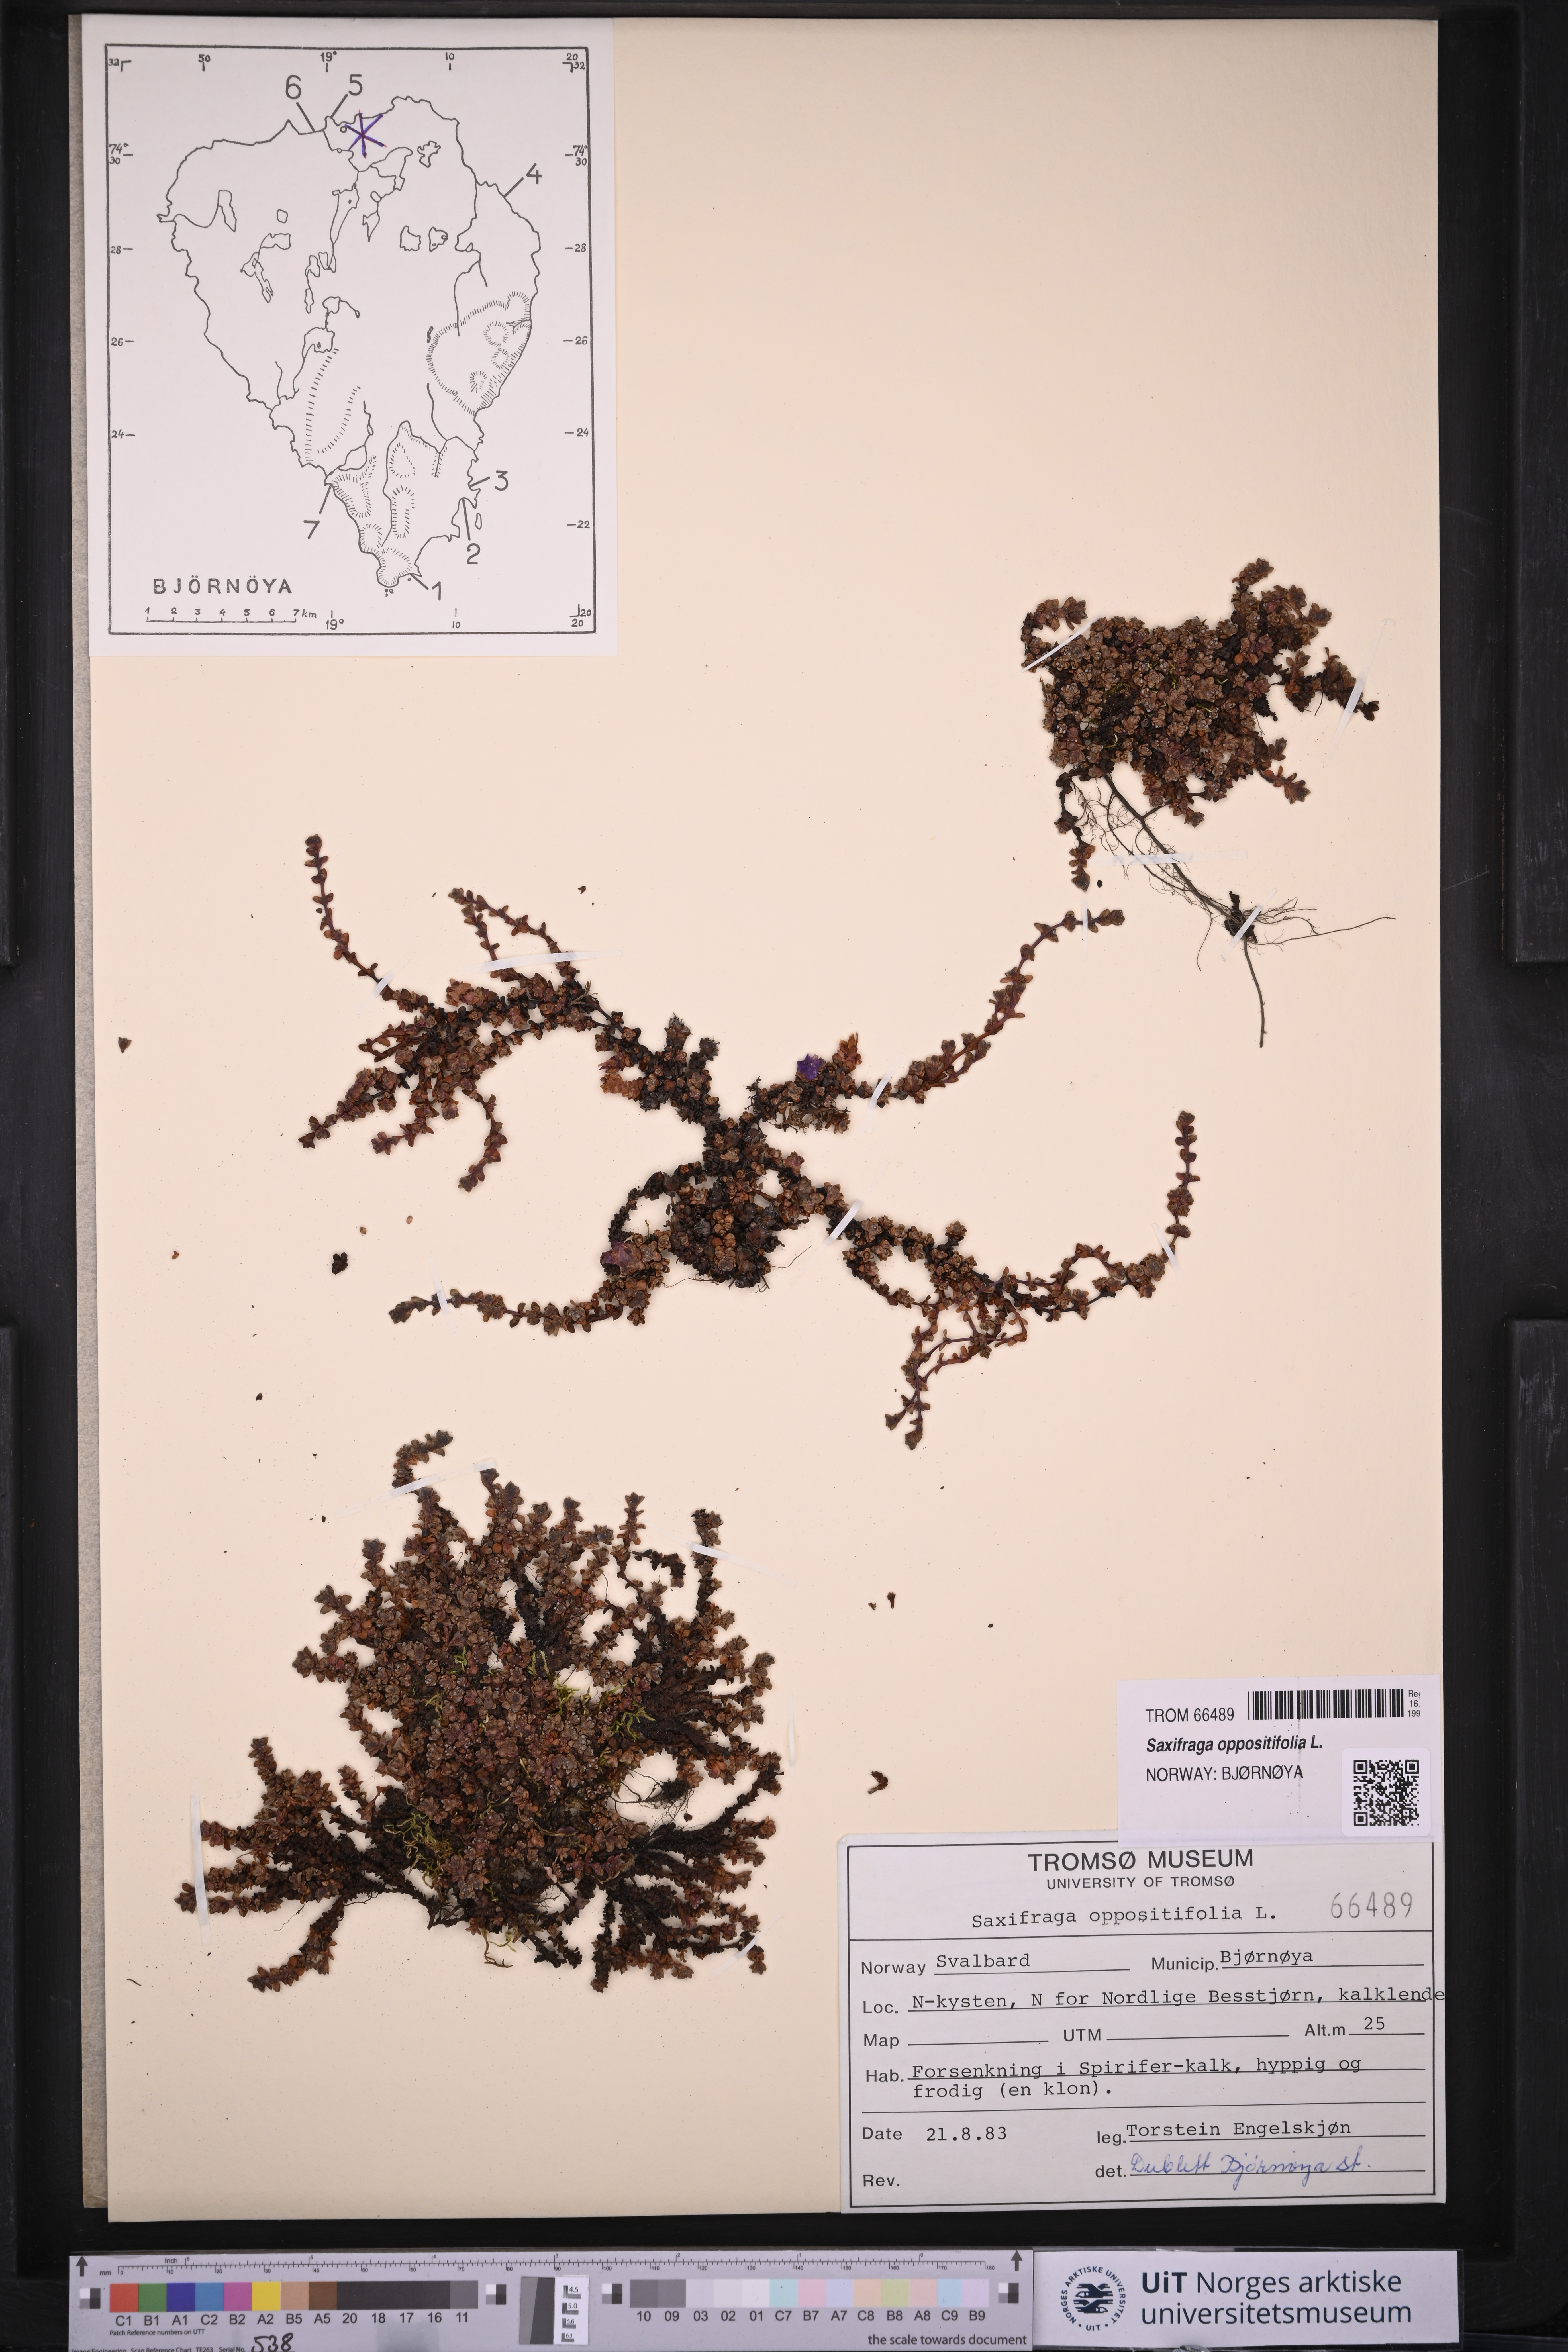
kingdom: Plantae
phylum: Tracheophyta
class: Magnoliopsida
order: Saxifragales
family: Saxifragaceae
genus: Saxifraga
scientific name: Saxifraga oppositifolia
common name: Purple saxifrage
